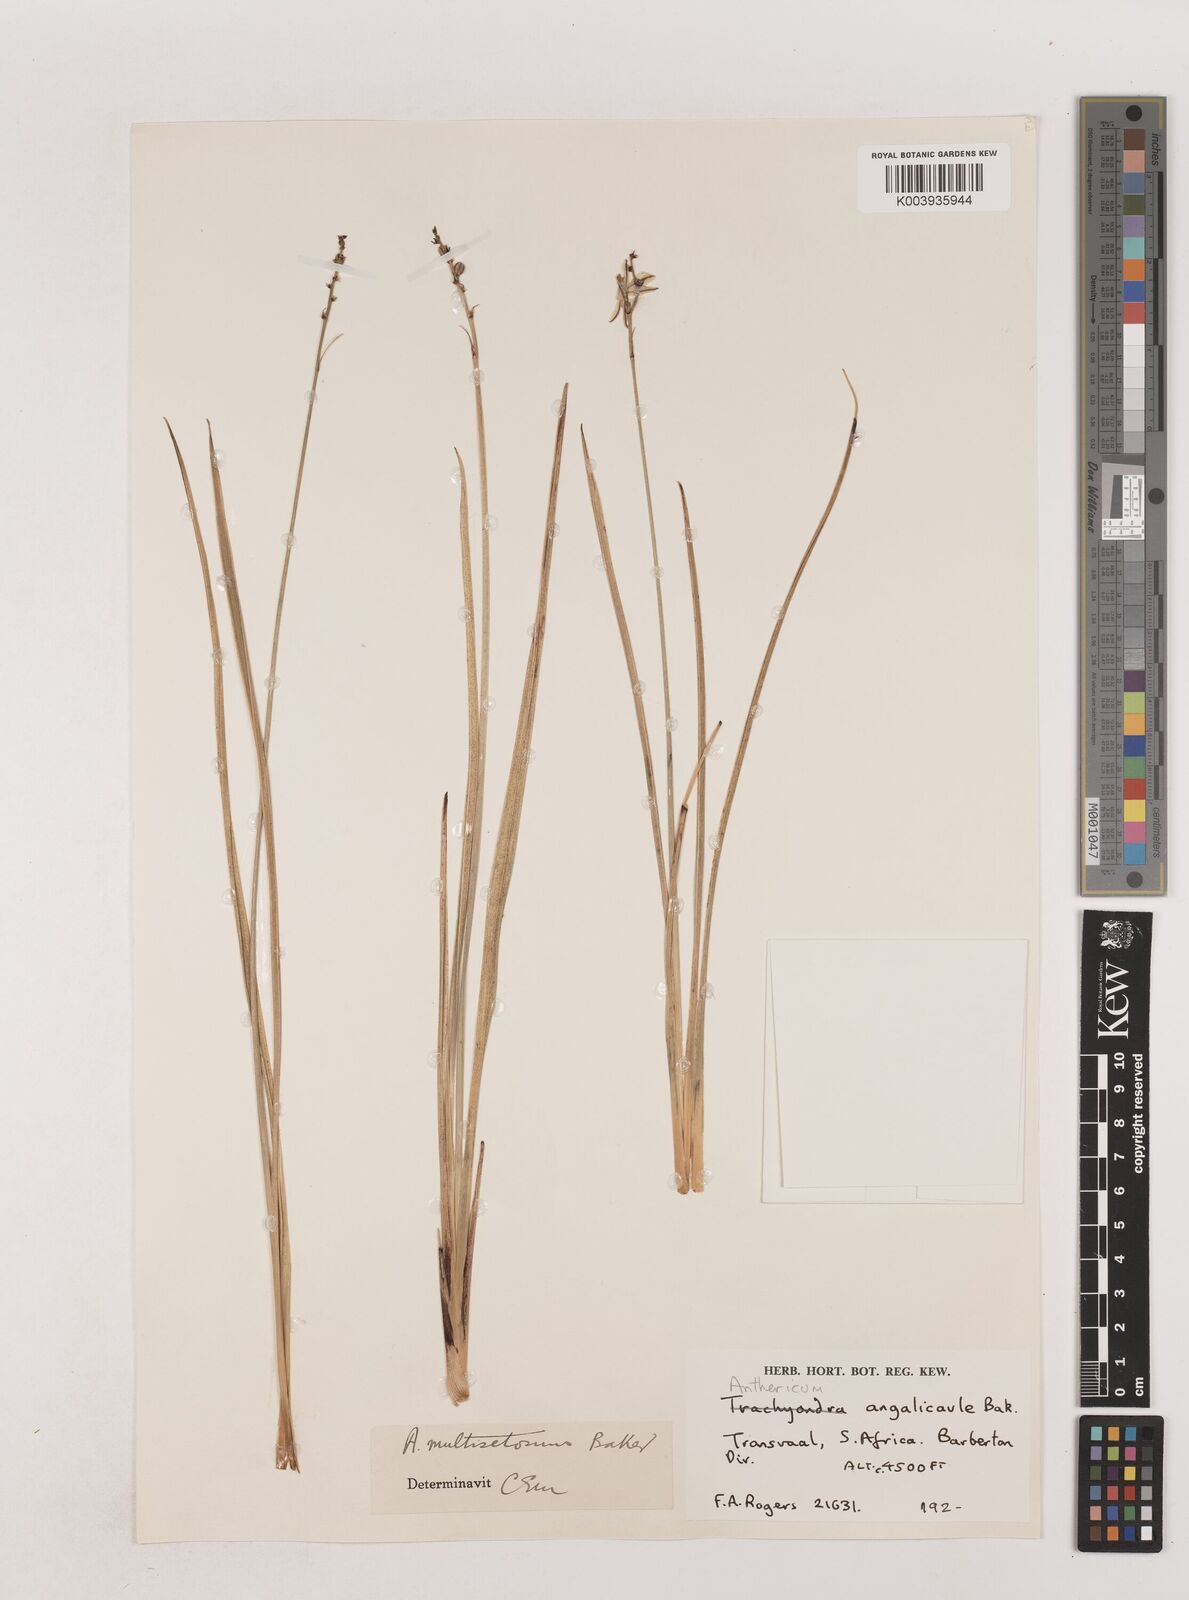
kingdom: Plantae
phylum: Tracheophyta
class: Liliopsida
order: Asparagales
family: Asparagaceae
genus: Chlorophytum
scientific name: Chlorophytum angulicaule
